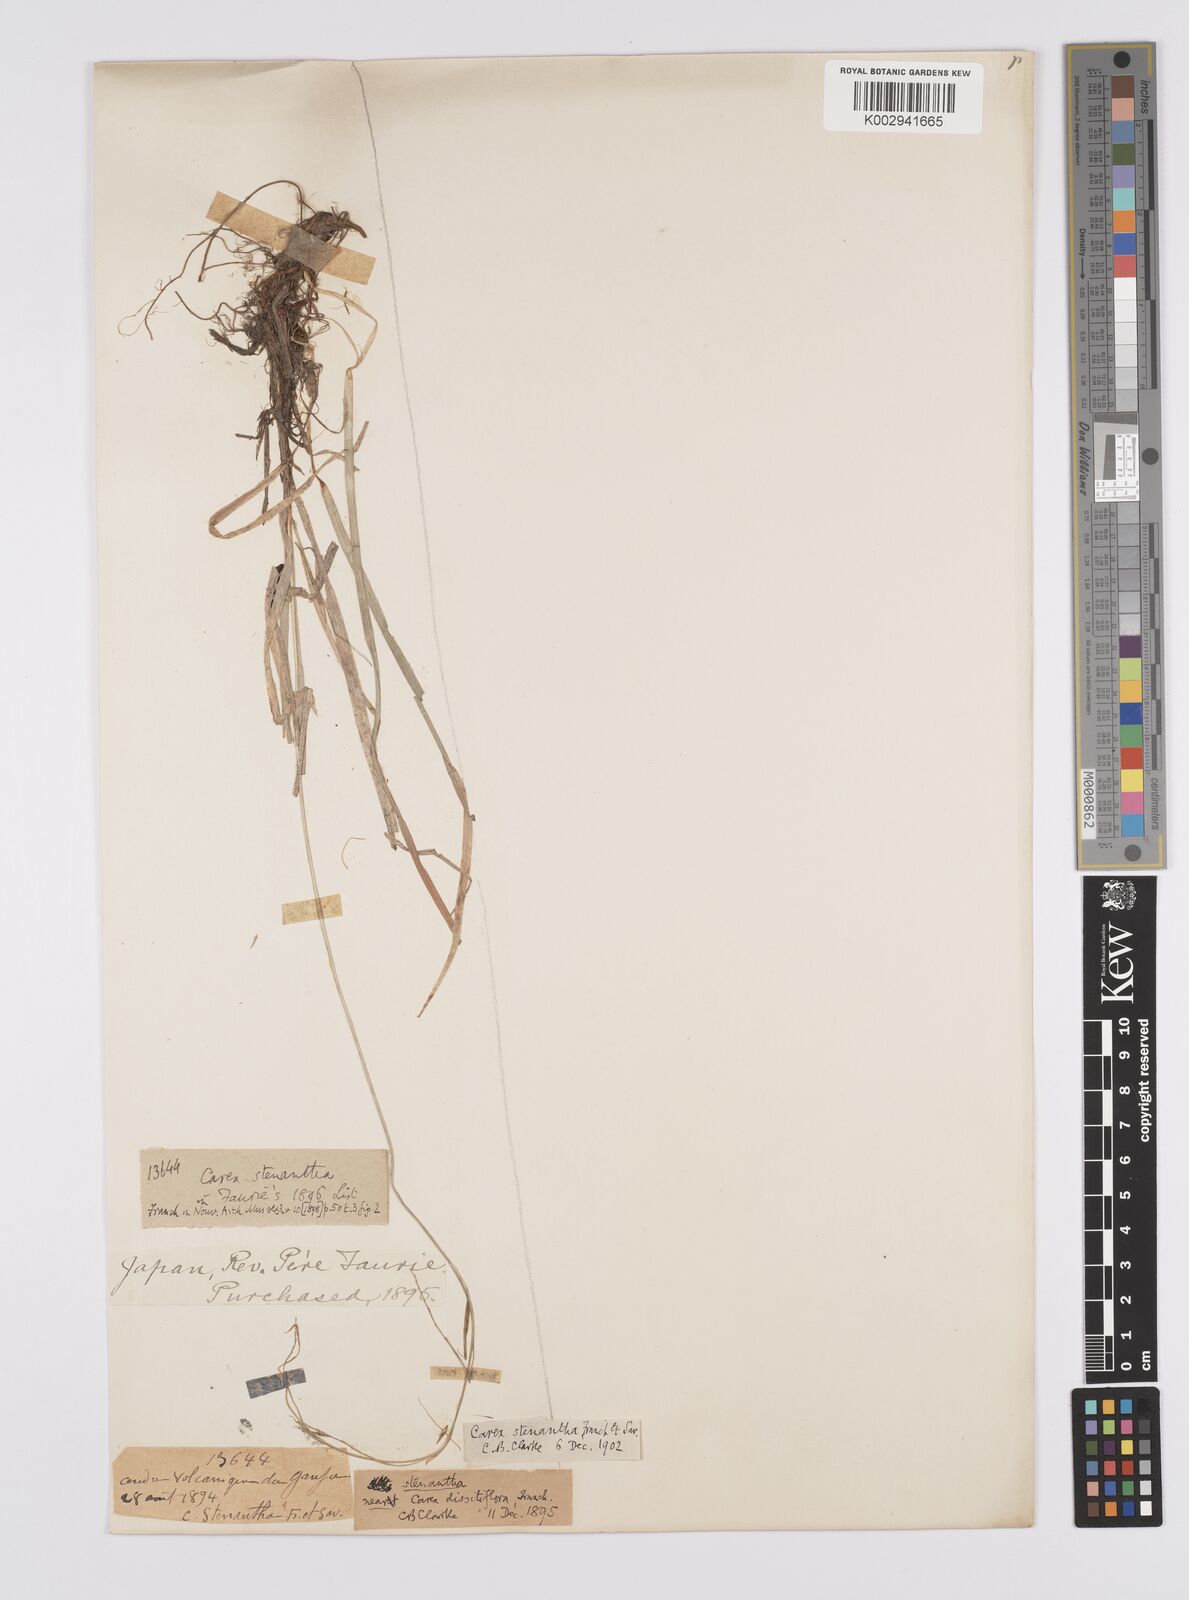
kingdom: Plantae
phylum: Tracheophyta
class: Liliopsida
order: Poales
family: Cyperaceae
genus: Carex
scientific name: Carex stenantha
